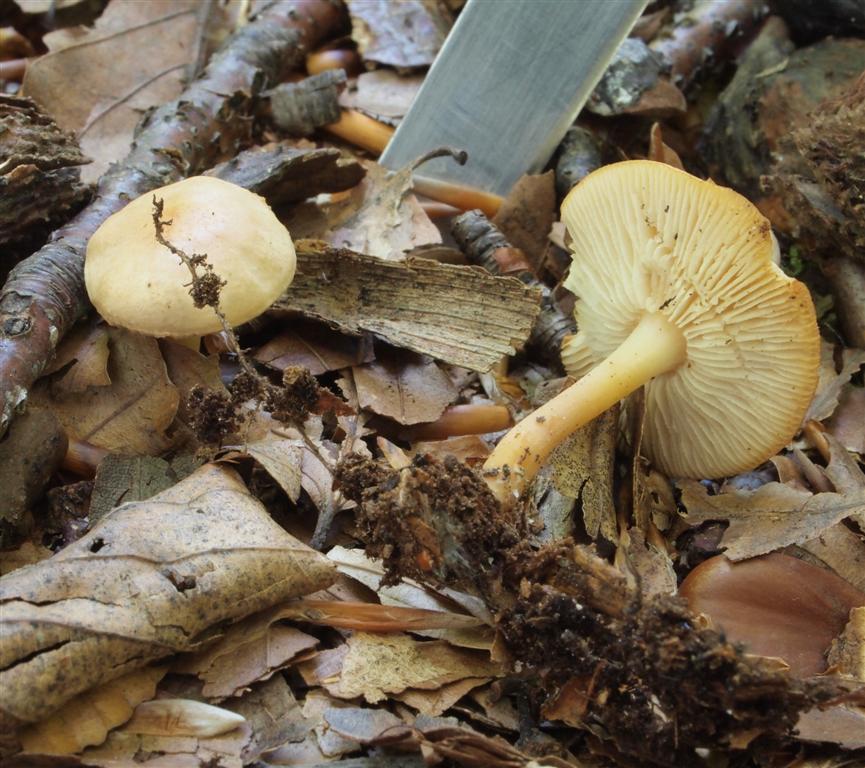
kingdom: Fungi
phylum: Basidiomycota
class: Agaricomycetes
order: Agaricales
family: Omphalotaceae
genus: Gymnopus
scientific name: Gymnopus aquosus
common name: bleg fladhat
